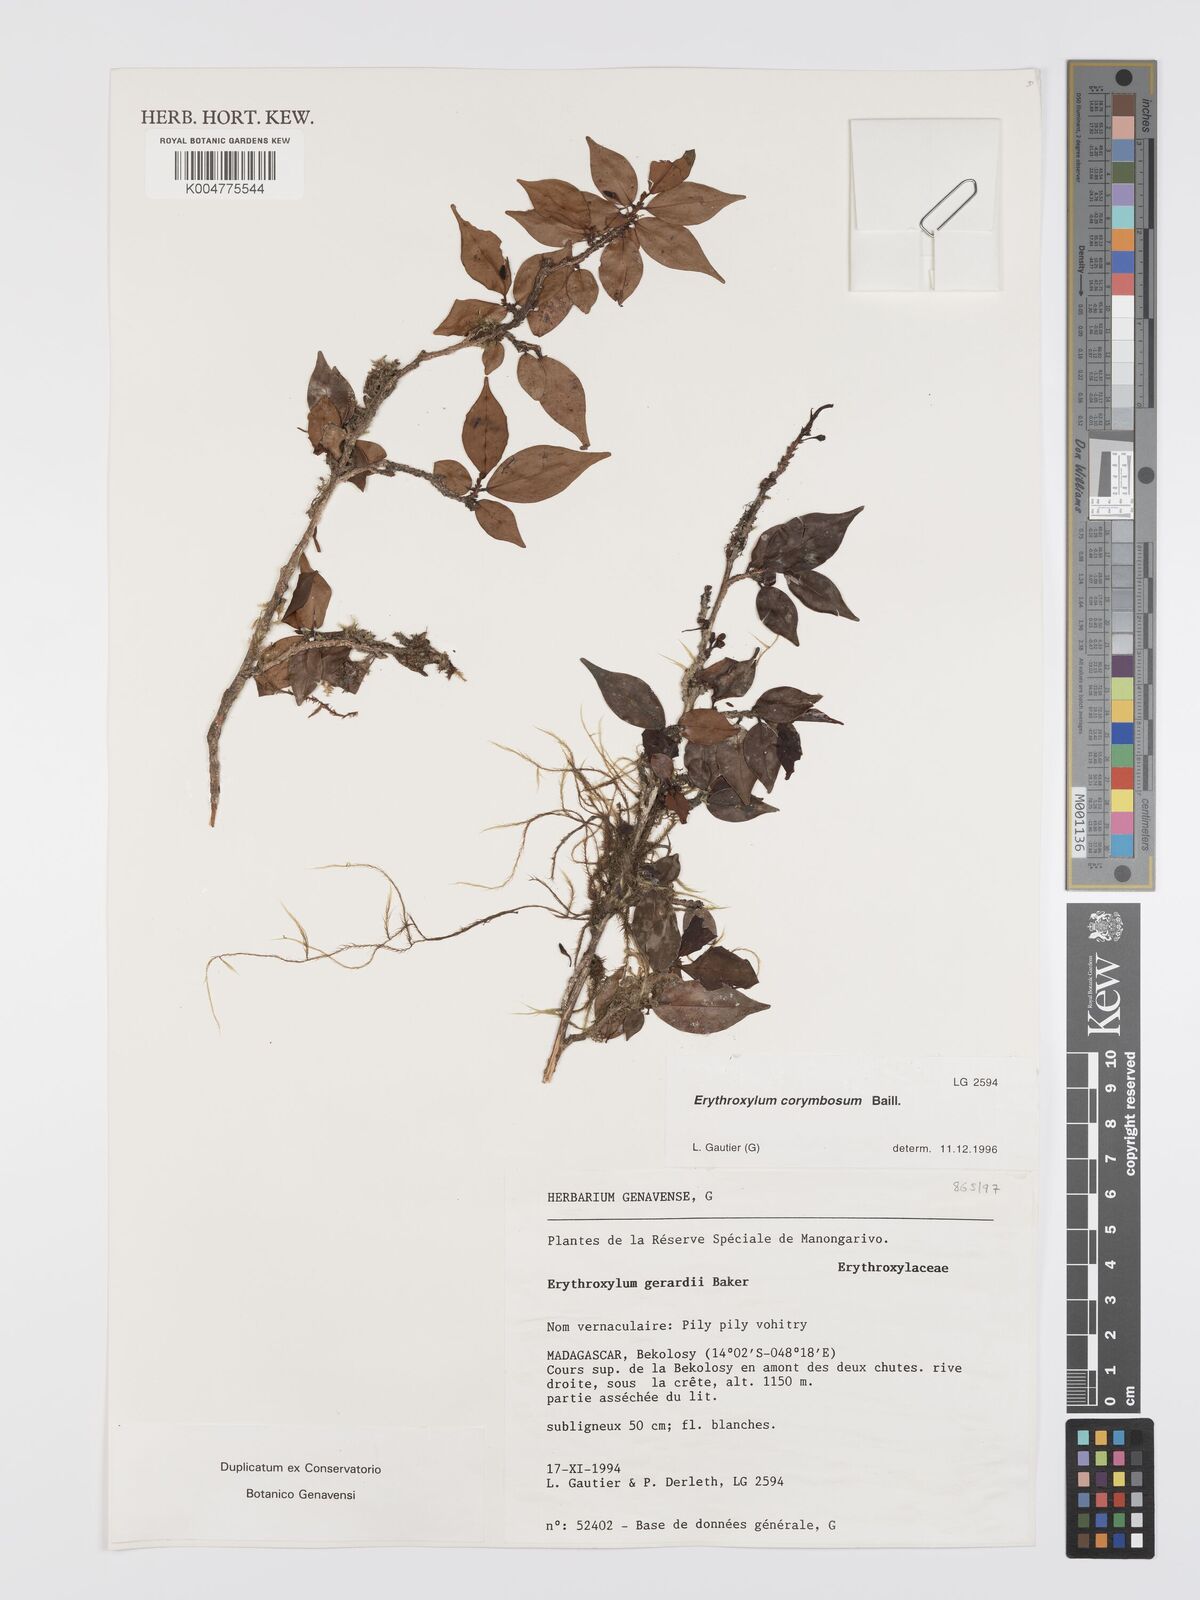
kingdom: Plantae
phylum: Tracheophyta
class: Magnoliopsida
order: Malpighiales
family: Erythroxylaceae
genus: Erythroxylum
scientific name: Erythroxylum corymbosum
